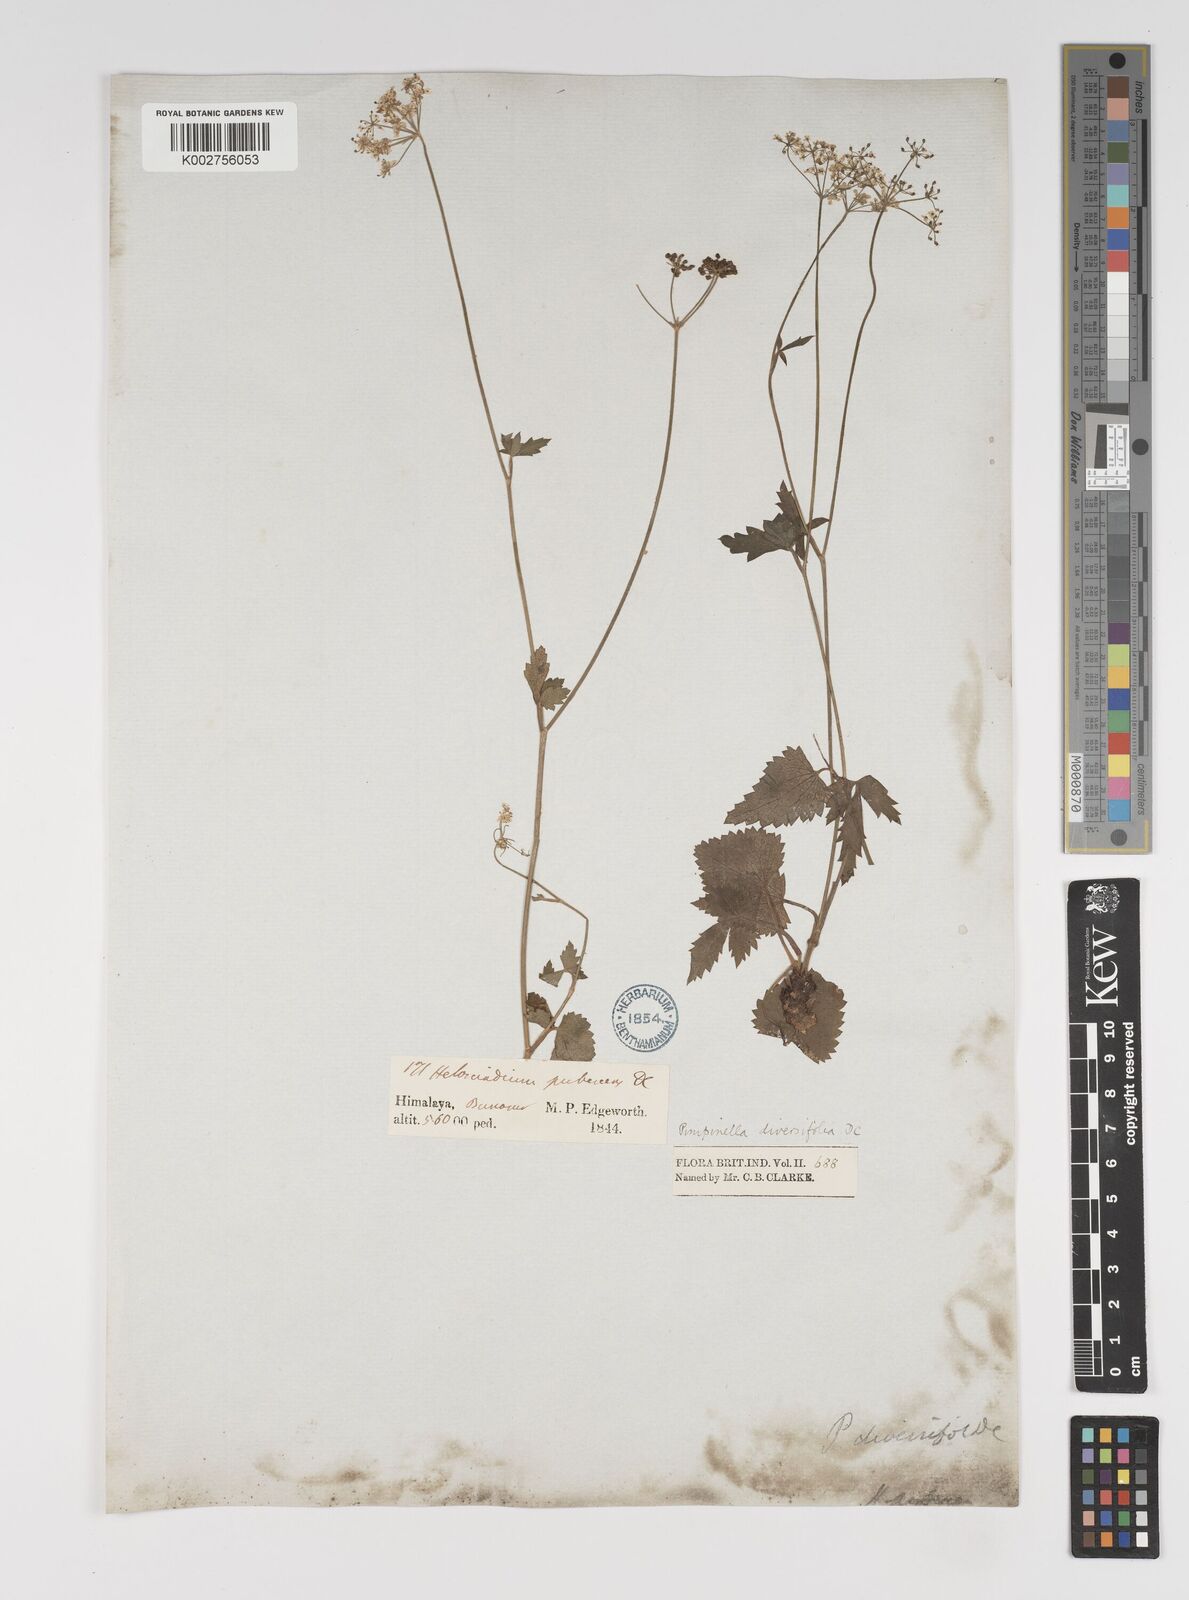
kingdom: Plantae
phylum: Tracheophyta
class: Magnoliopsida
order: Apiales
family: Apiaceae
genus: Pimpinella
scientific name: Pimpinella diversifolia
